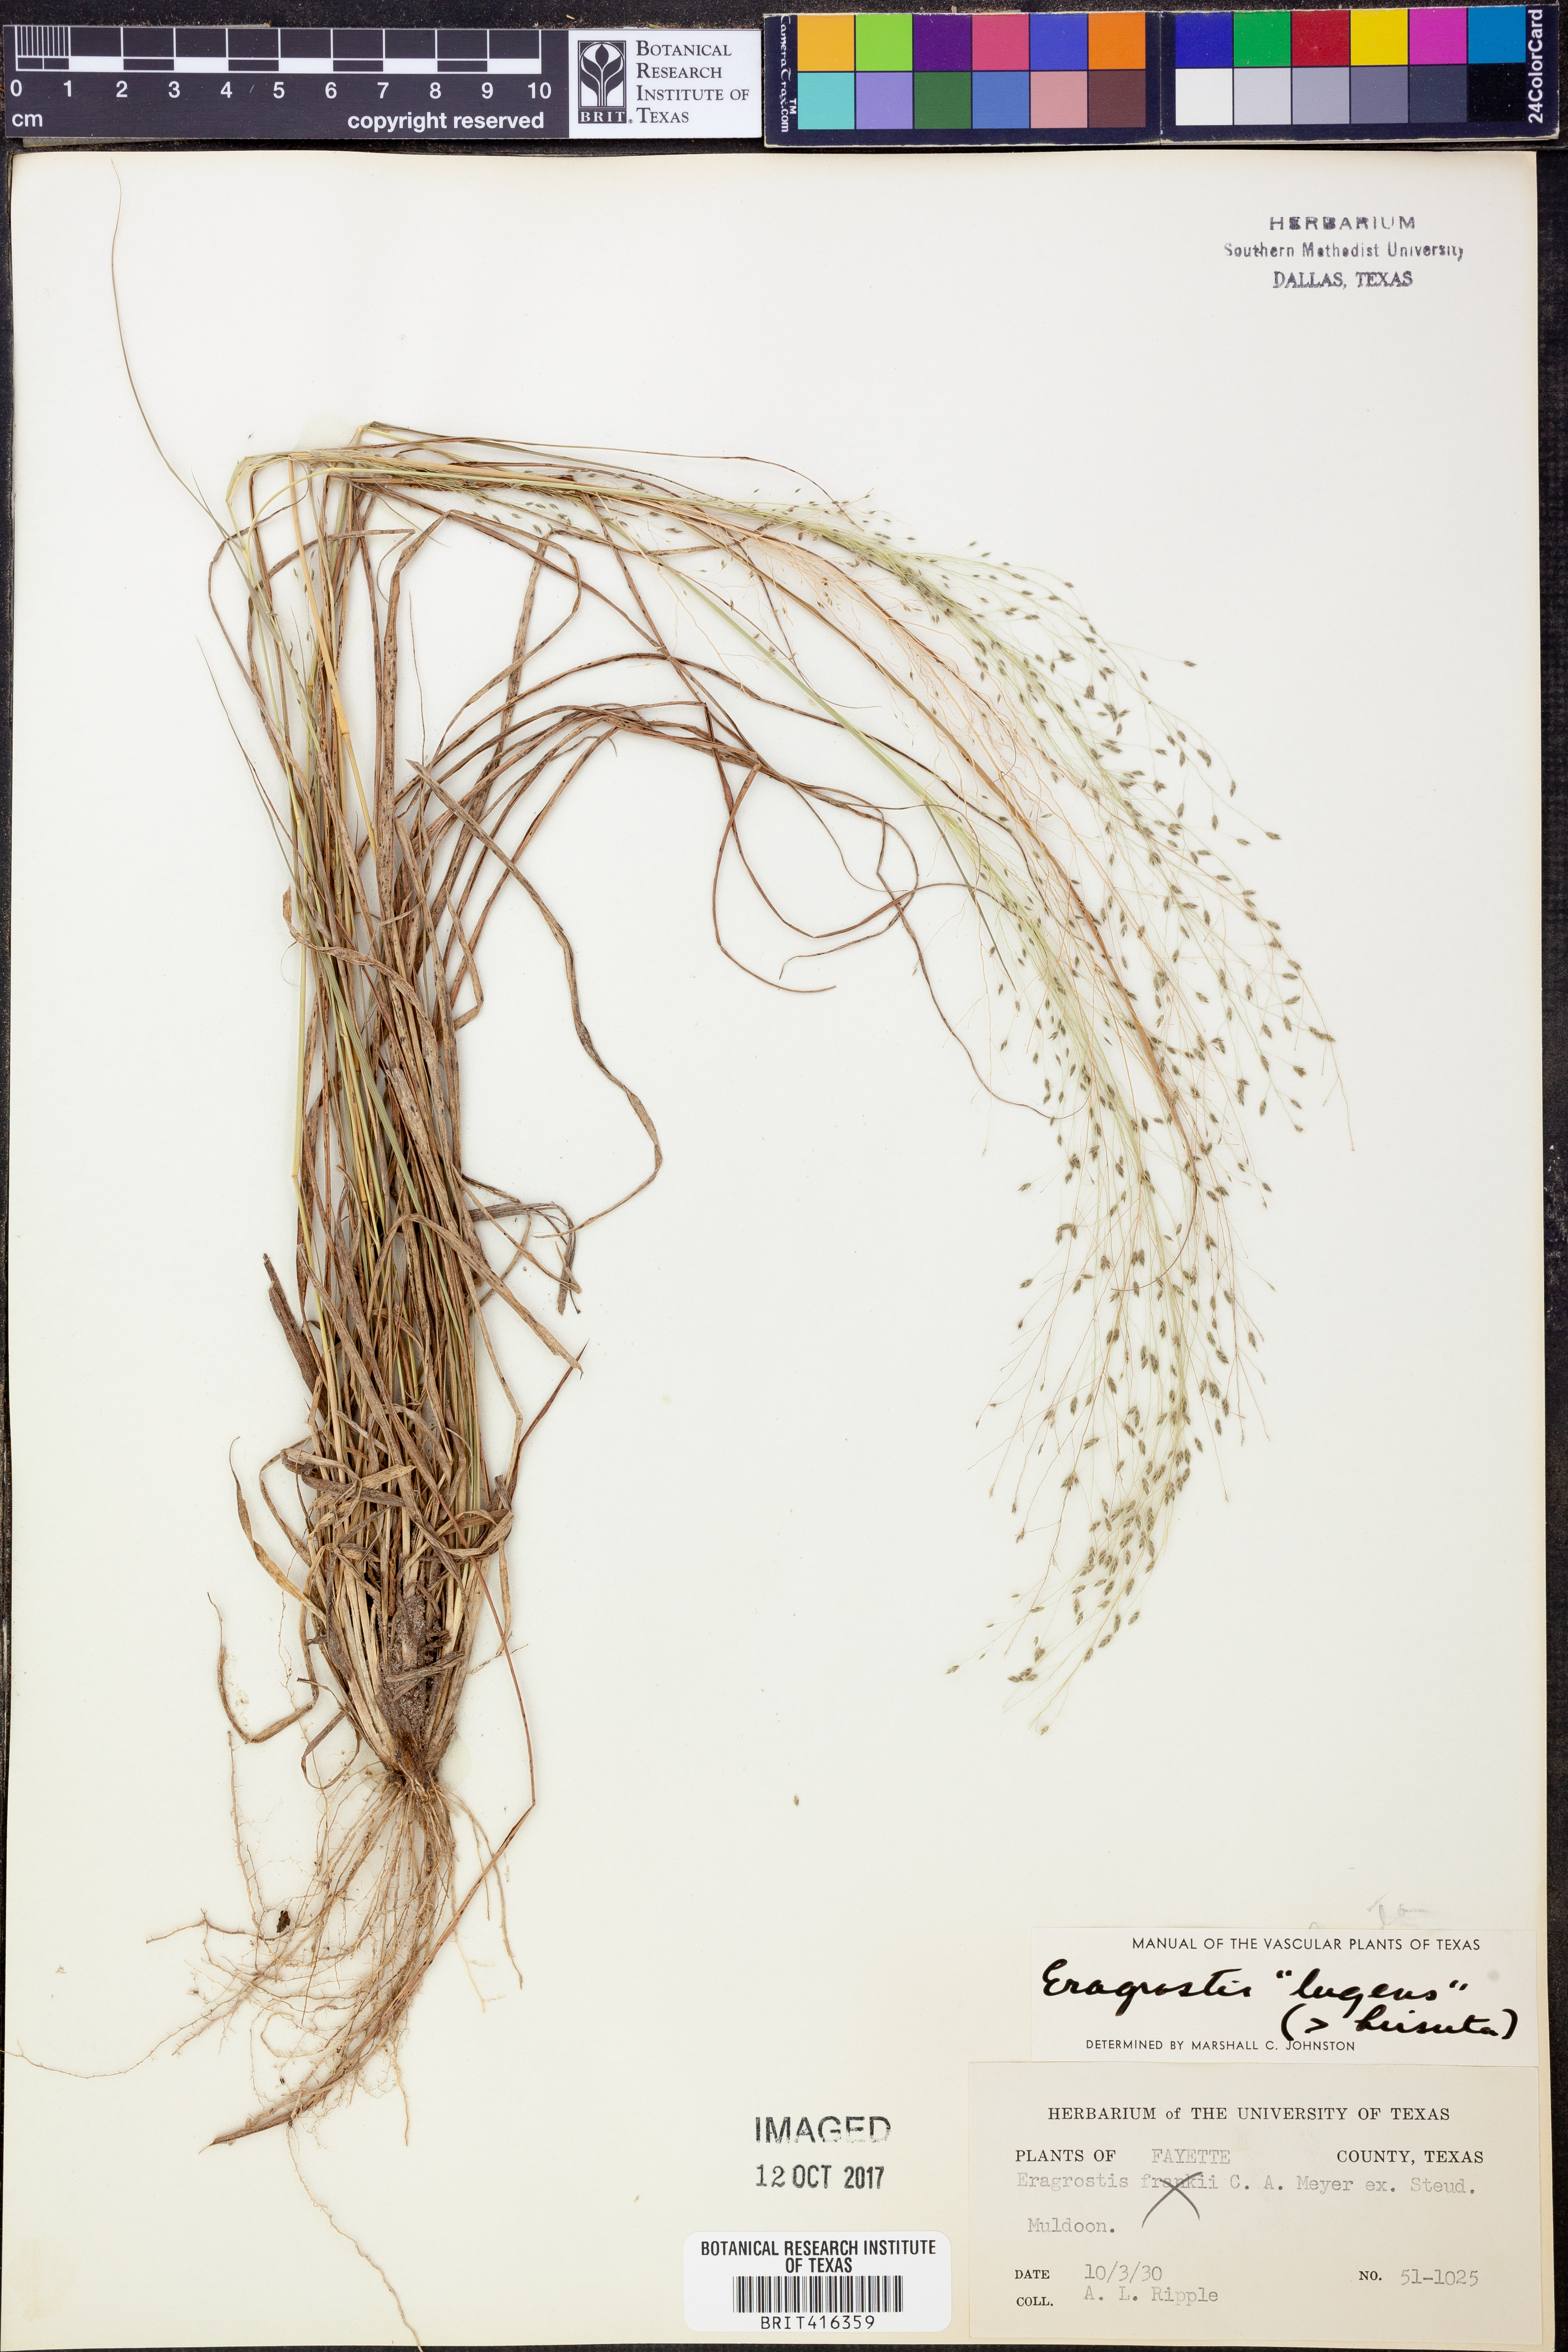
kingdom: Plantae
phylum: Tracheophyta
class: Liliopsida
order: Poales
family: Poaceae
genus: Eragrostis
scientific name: Eragrostis capillaris
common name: Hair-like lovegrass
